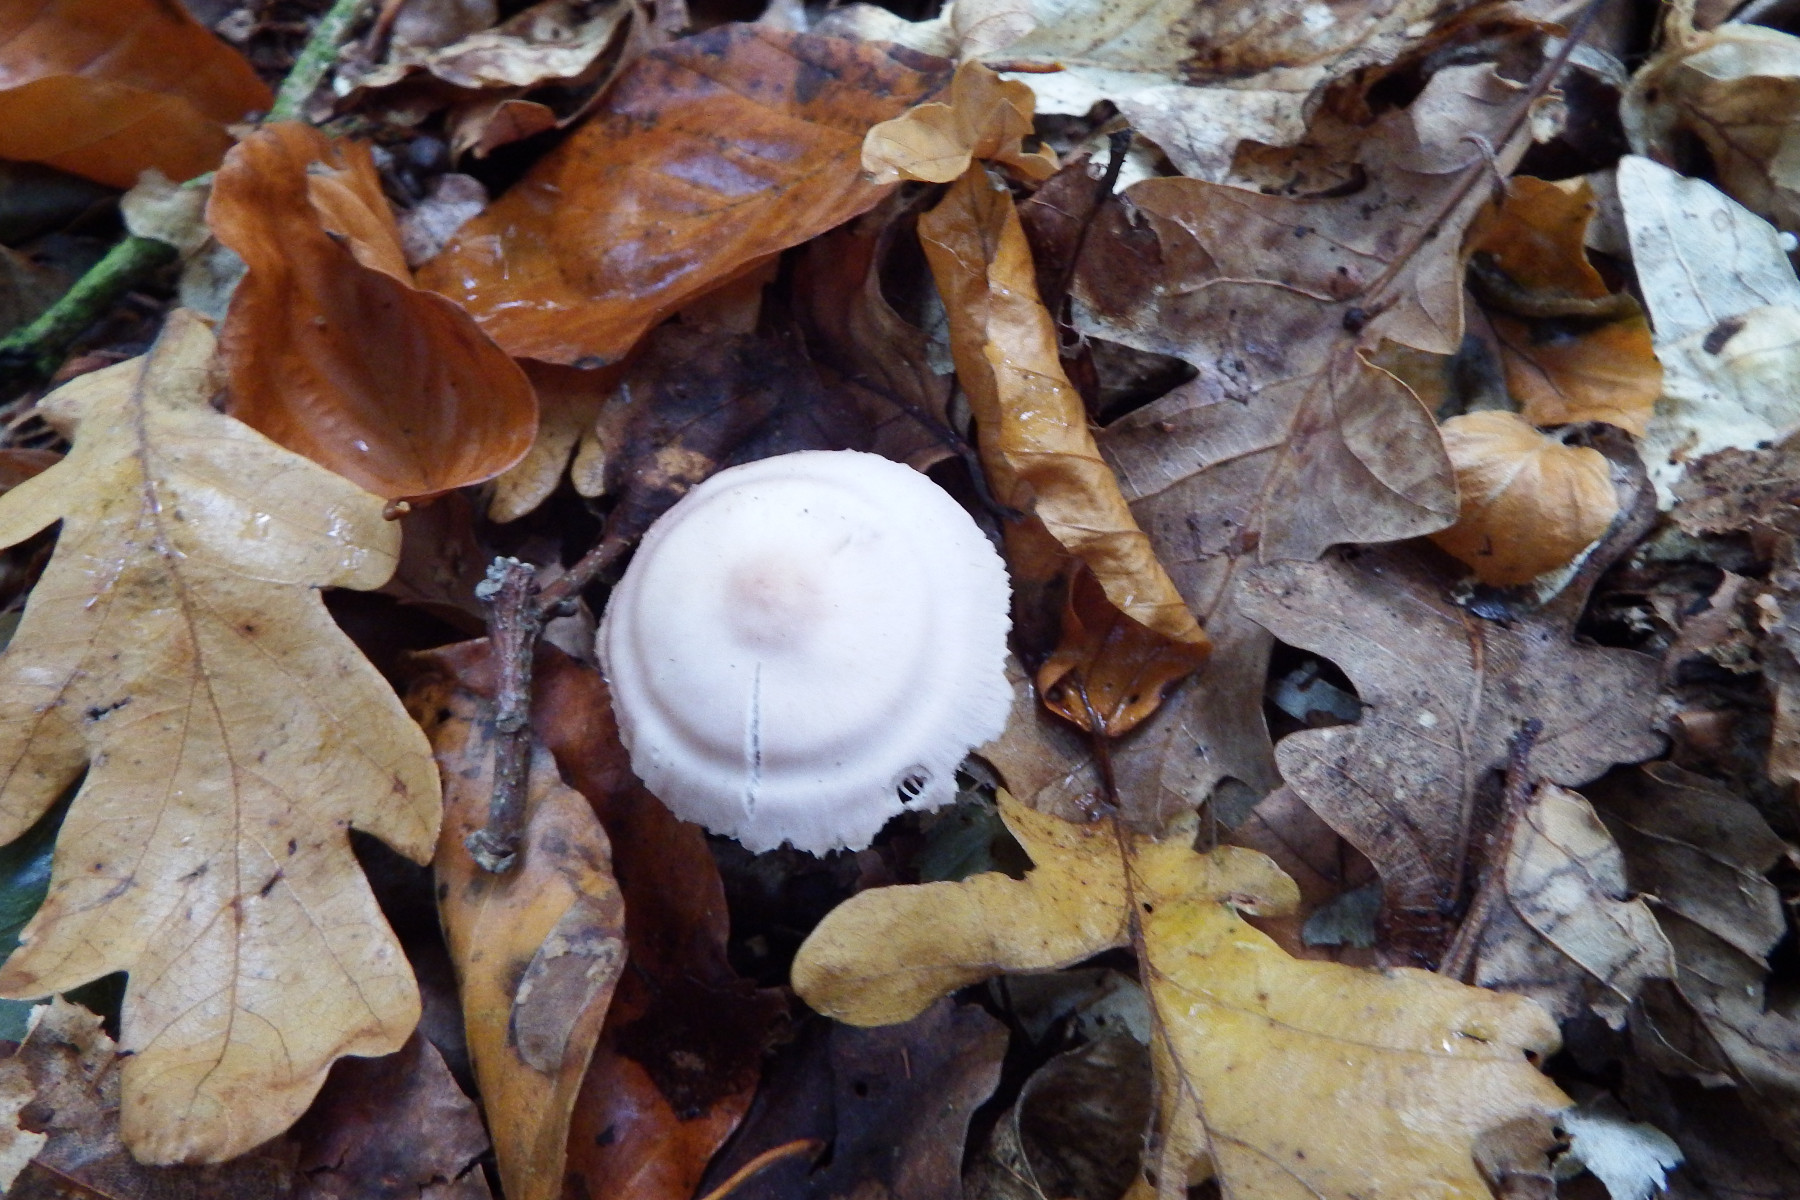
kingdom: Fungi
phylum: Basidiomycota
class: Agaricomycetes
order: Agaricales
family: Mycenaceae
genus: Mycena
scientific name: Mycena rosea
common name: rosa huesvamp
